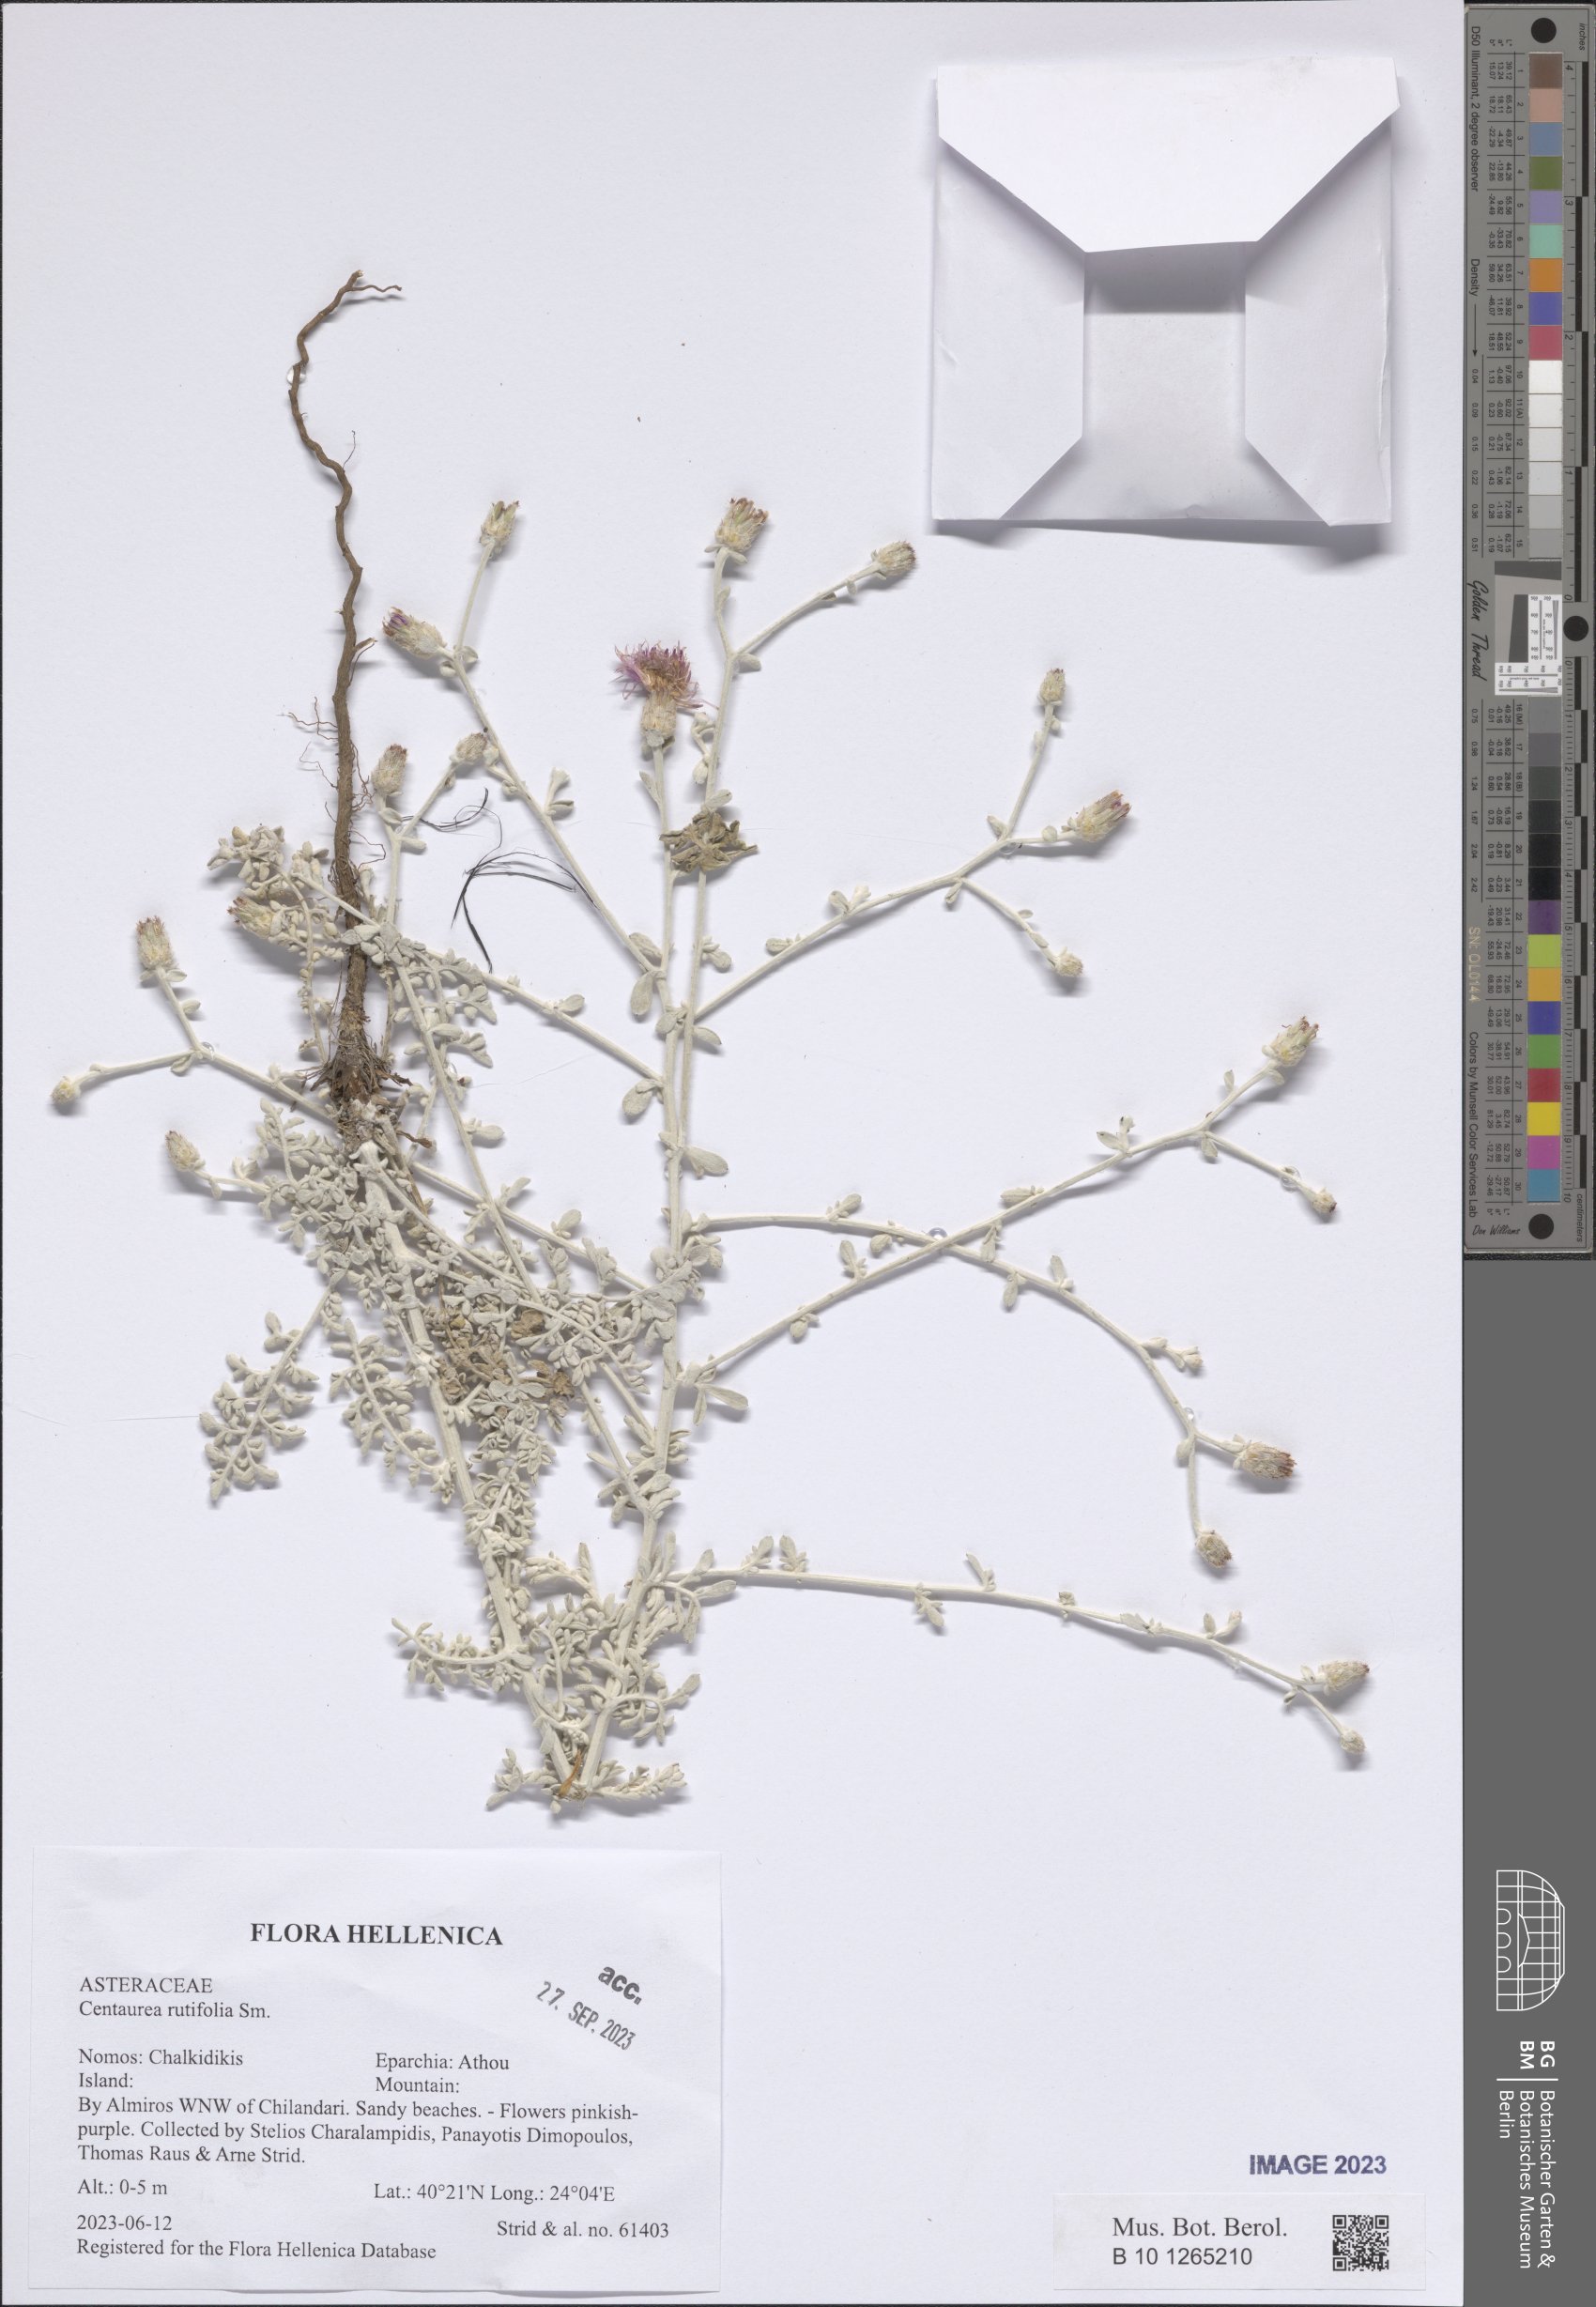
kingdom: Plantae
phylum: Tracheophyta
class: Magnoliopsida
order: Asterales
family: Asteraceae
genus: Centaurea
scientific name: Centaurea rutifolia
